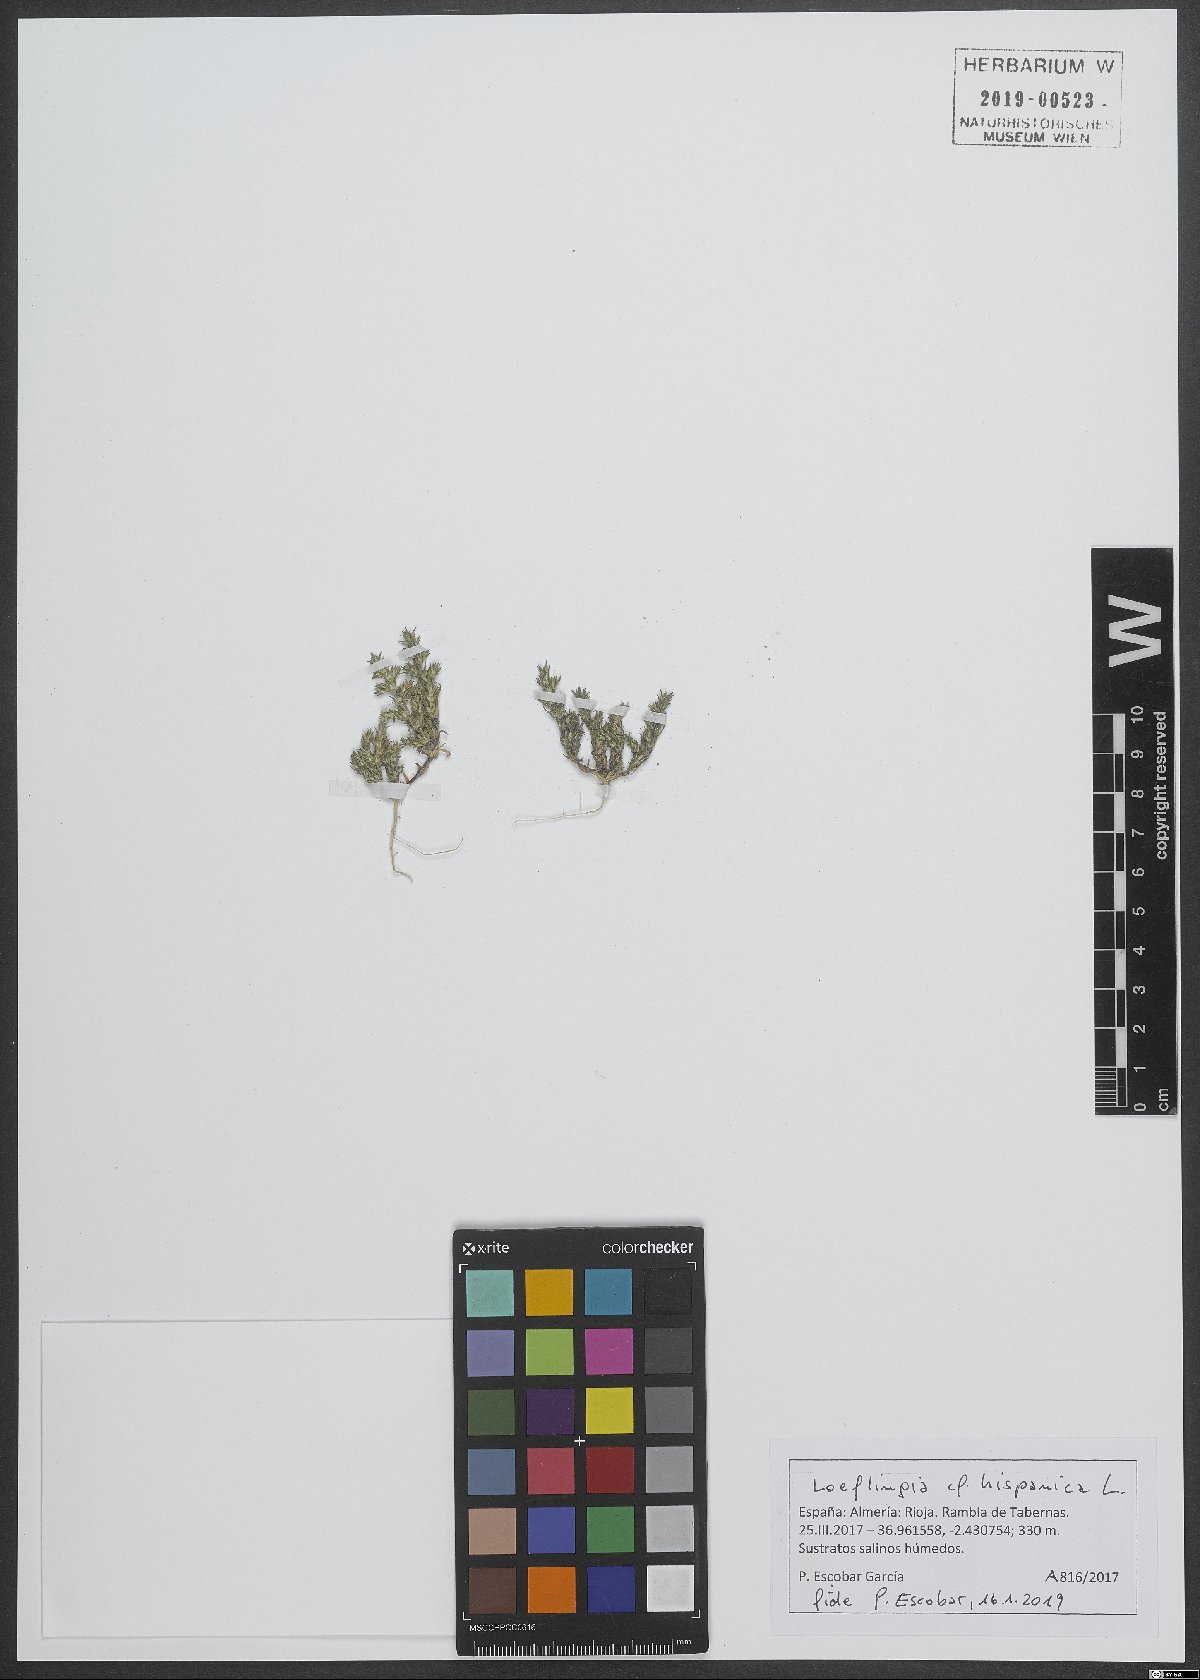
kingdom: Plantae
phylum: Tracheophyta
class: Magnoliopsida
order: Caryophyllales
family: Caryophyllaceae
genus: Loeflingia
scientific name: Loeflingia hispanica
